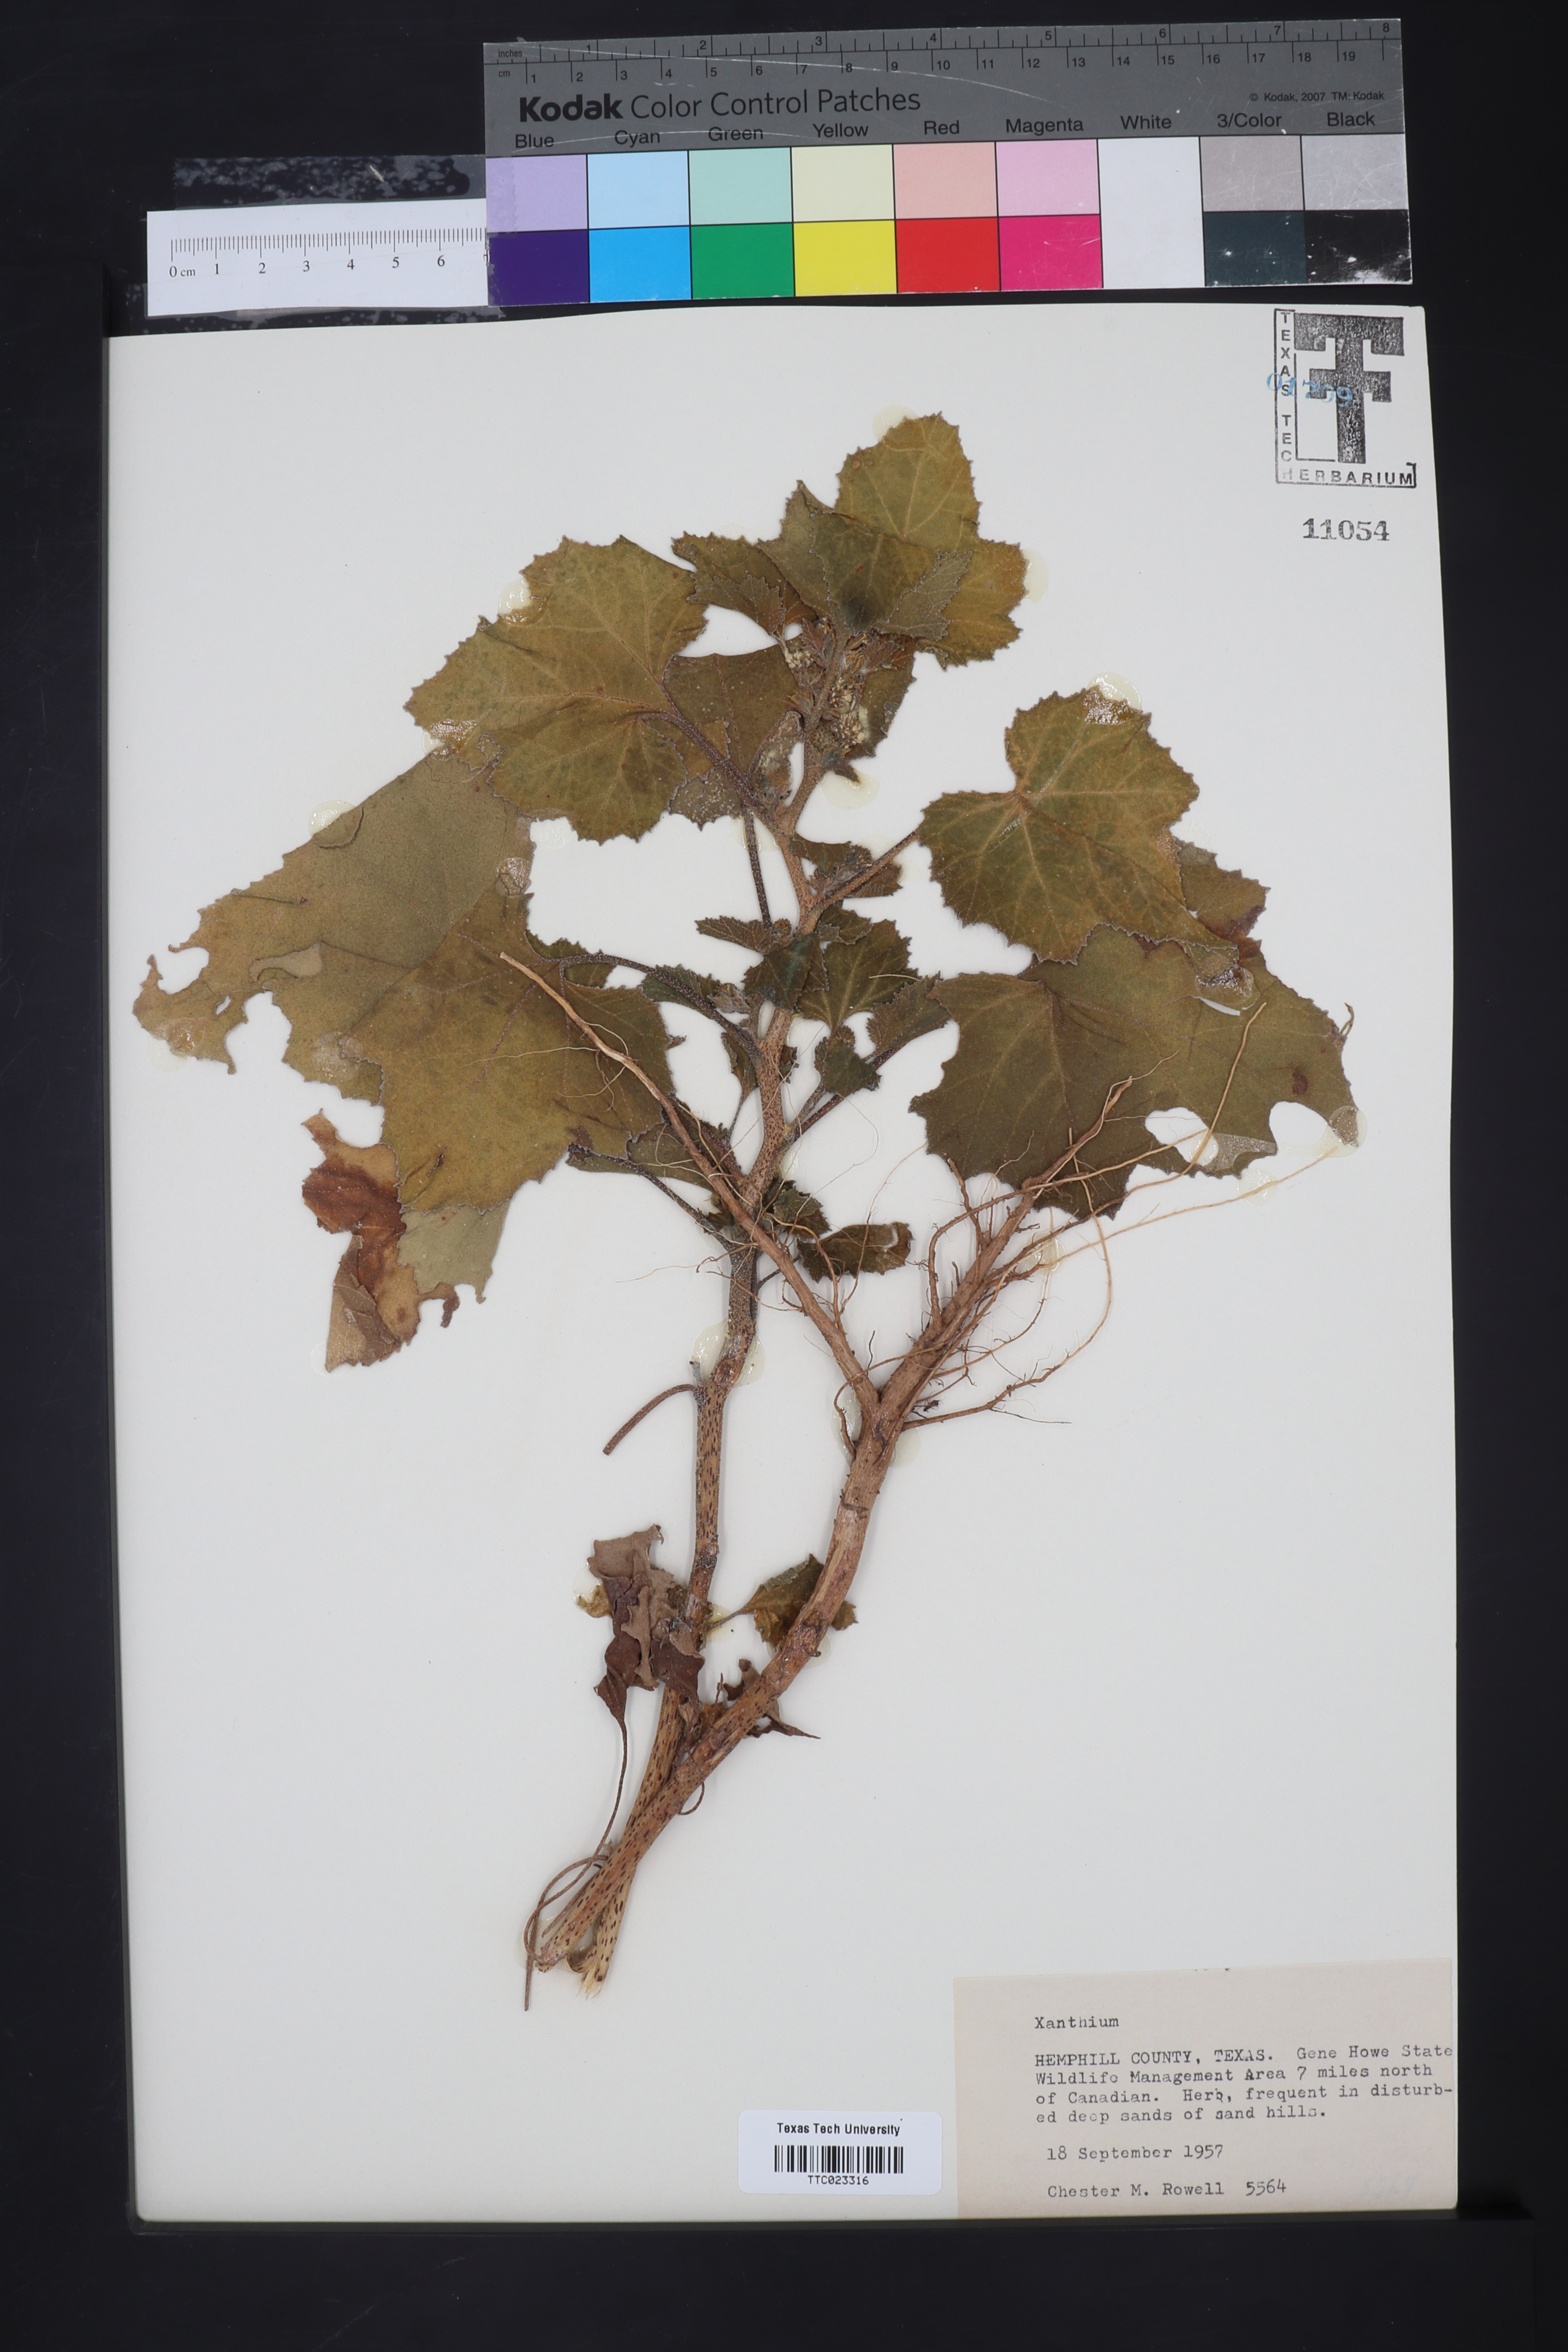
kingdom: Plantae
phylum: Tracheophyta
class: Magnoliopsida
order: Asterales
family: Asteraceae
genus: Xanthium
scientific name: Xanthium
